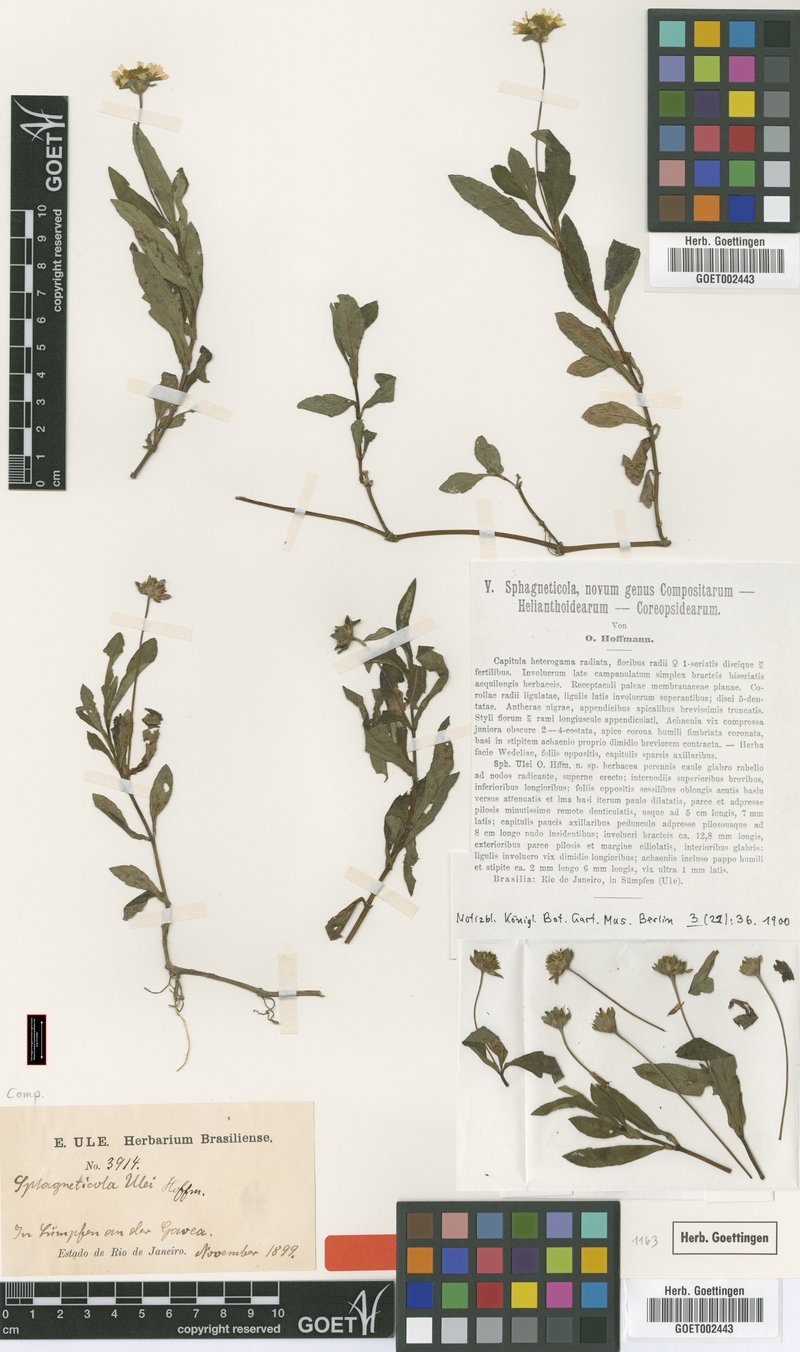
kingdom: Plantae
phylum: Tracheophyta
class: Magnoliopsida
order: Asterales
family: Asteraceae
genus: Sphagneticola
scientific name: Sphagneticola trilobata
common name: Bay biscayne creeping-oxeye
